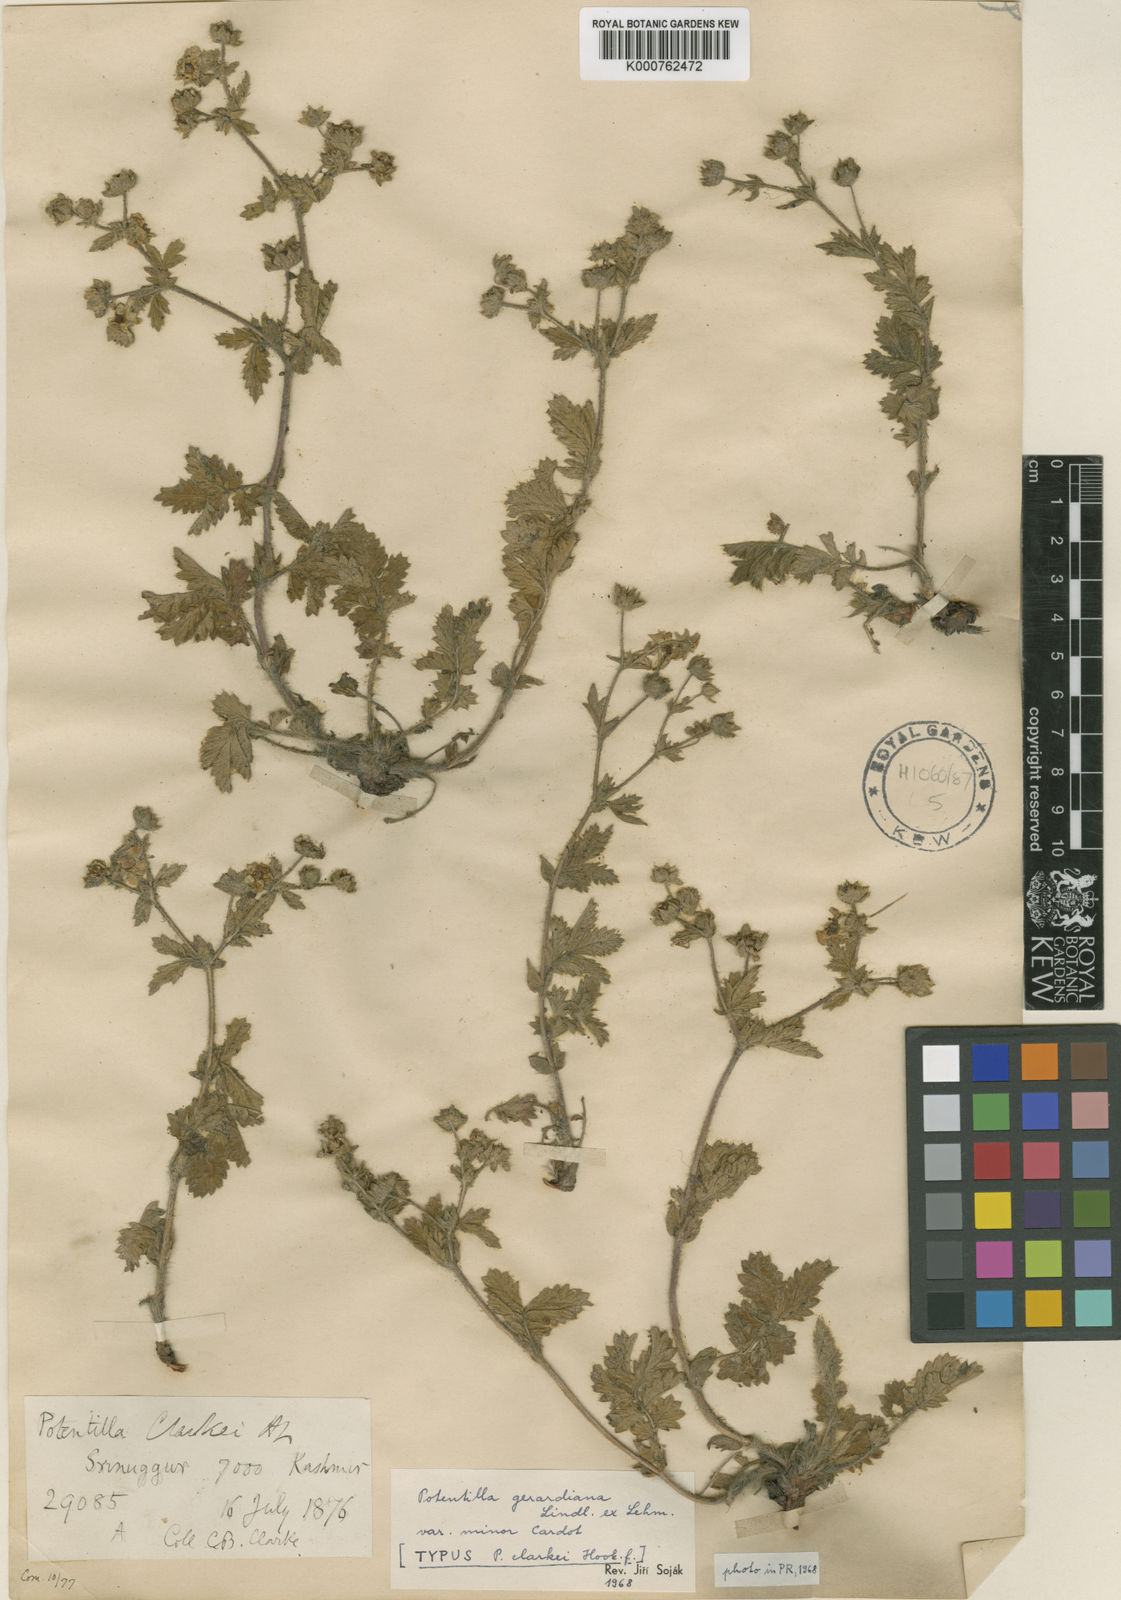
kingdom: Plantae
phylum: Tracheophyta
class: Magnoliopsida
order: Rosales
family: Rosaceae
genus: Potentilla
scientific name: Potentilla
